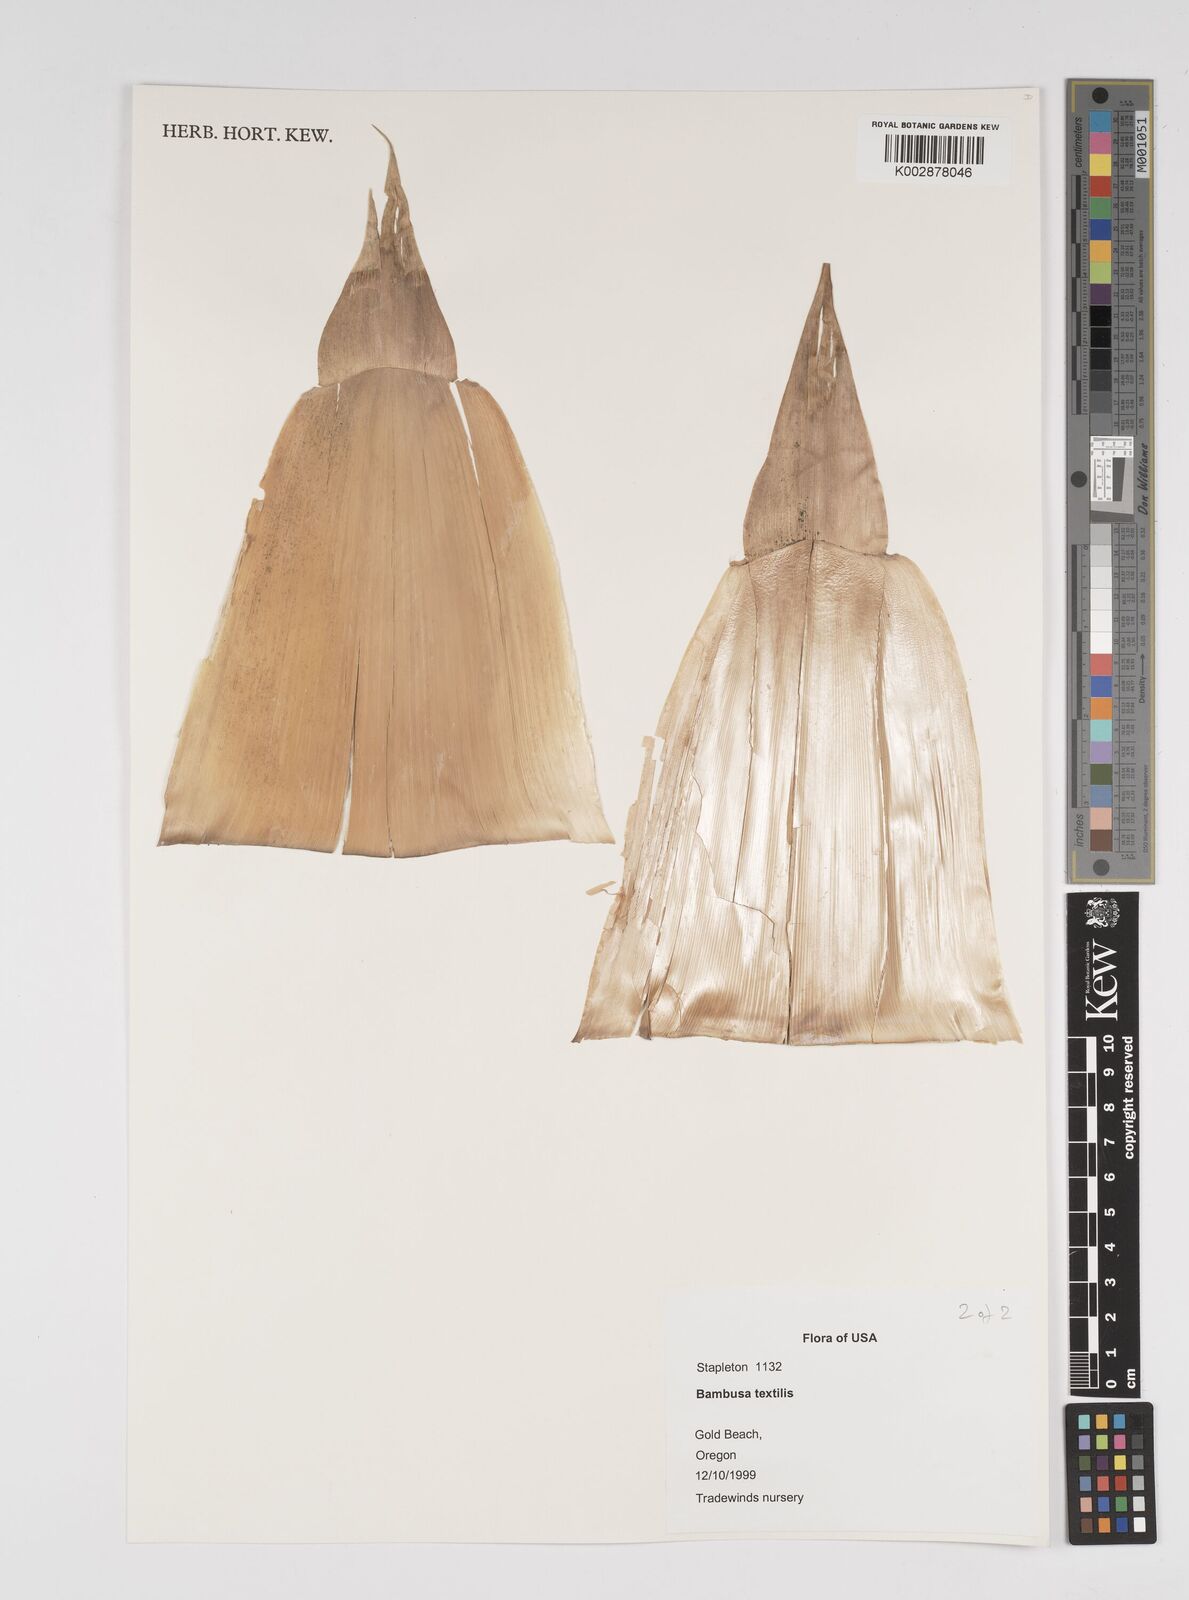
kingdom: Plantae
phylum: Tracheophyta
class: Liliopsida
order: Poales
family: Poaceae
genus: Bambusa
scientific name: Bambusa textilis
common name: Weaver's bamboo
